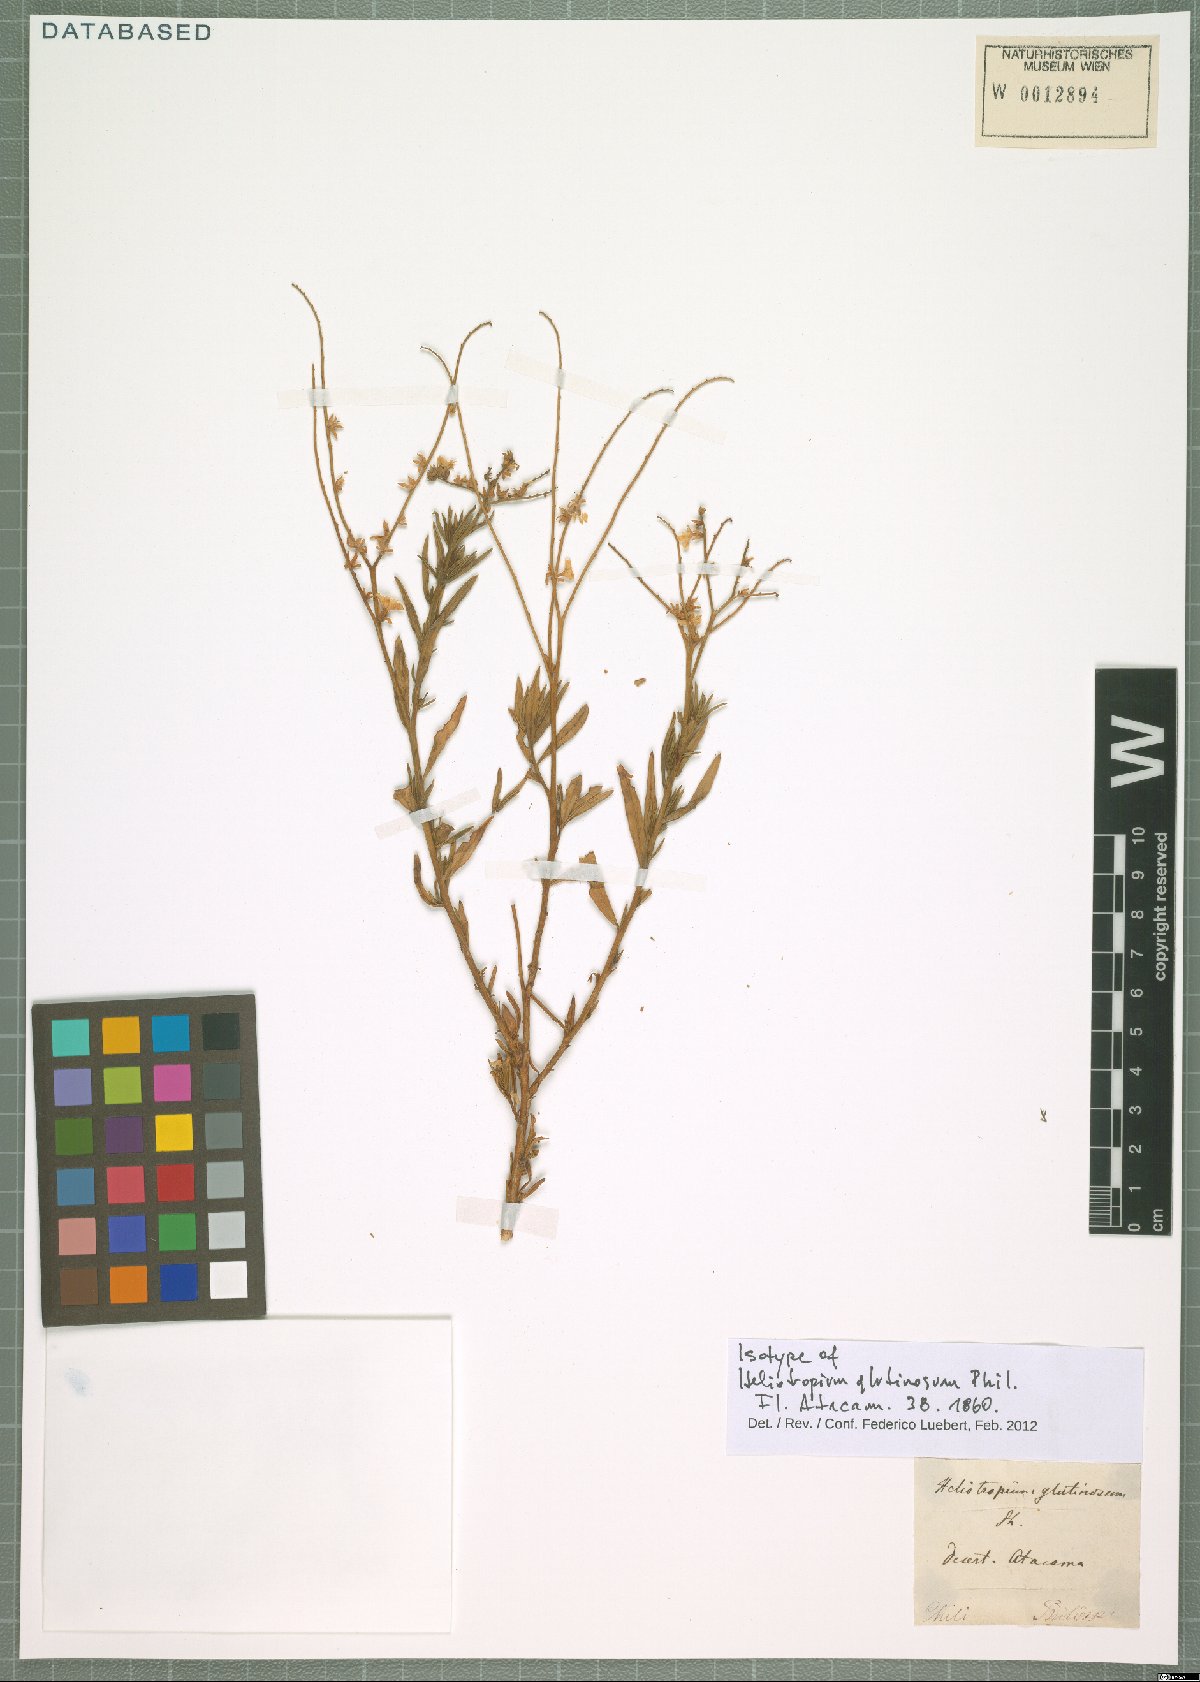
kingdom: Plantae
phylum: Tracheophyta
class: Magnoliopsida
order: Boraginales
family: Heliotropiaceae
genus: Heliotropium
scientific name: Heliotropium glutinosum
